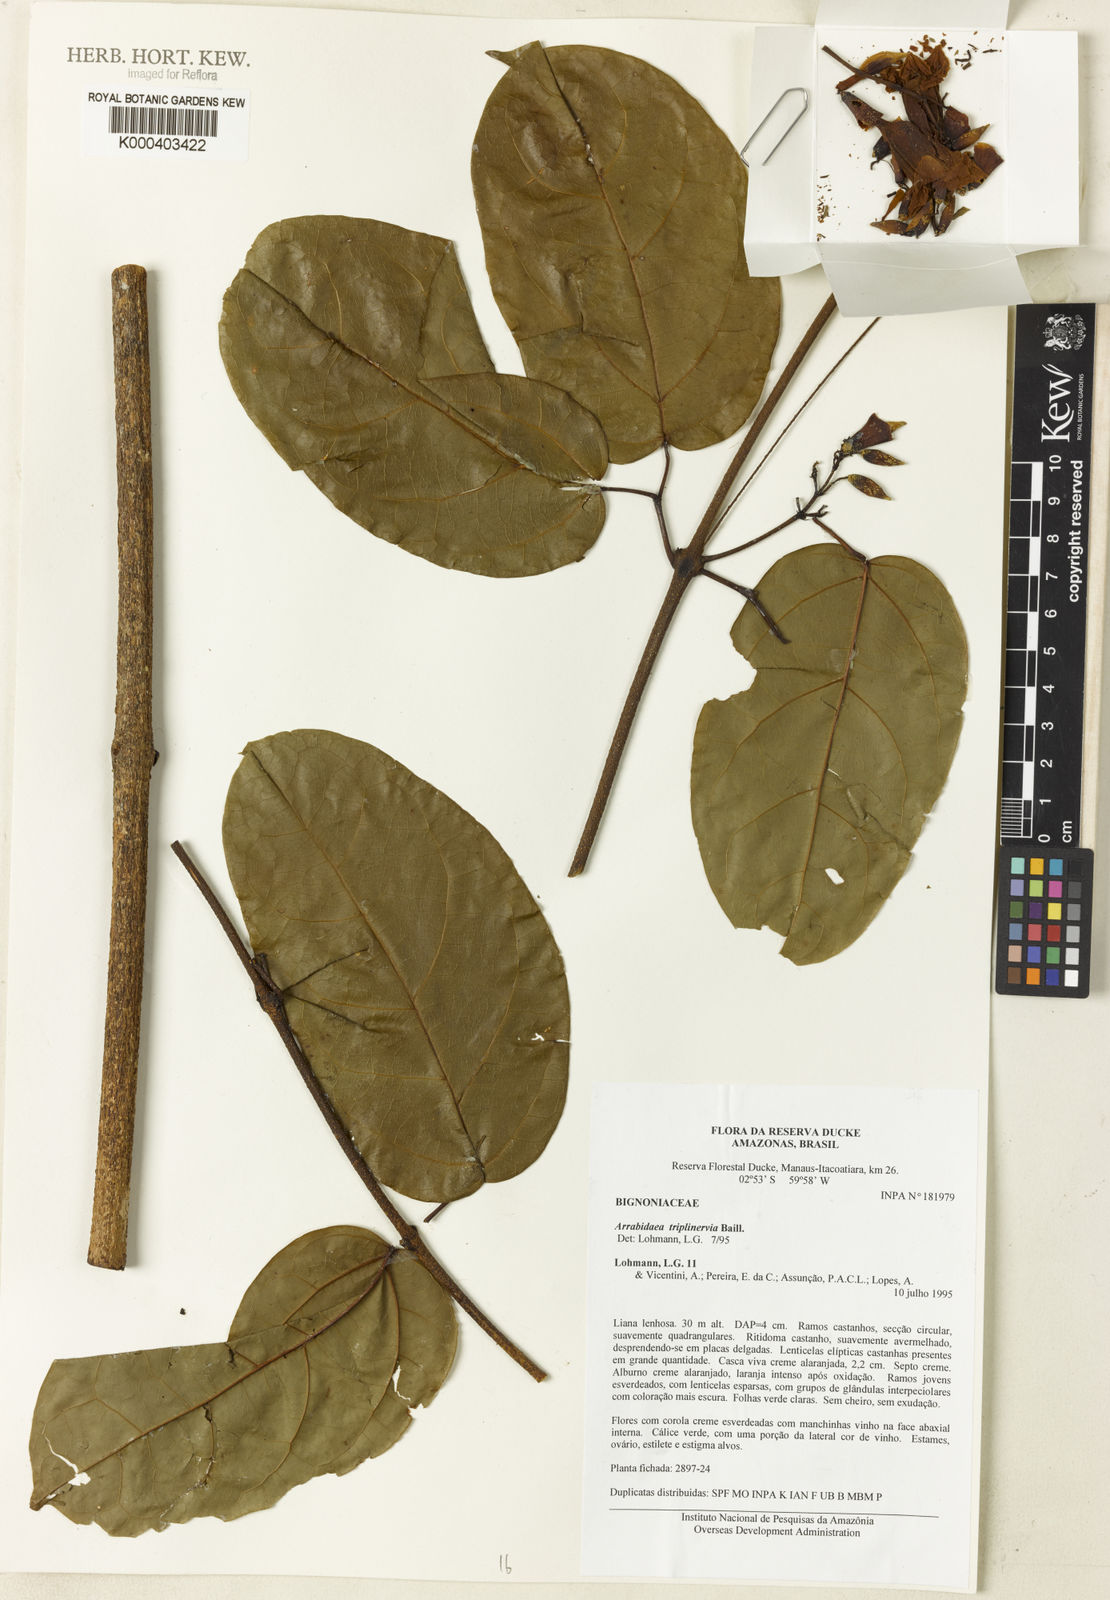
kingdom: Plantae
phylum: Tracheophyta
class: Magnoliopsida
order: Rosales
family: Rhamnaceae
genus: Arrabidaea
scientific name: Arrabidaea
